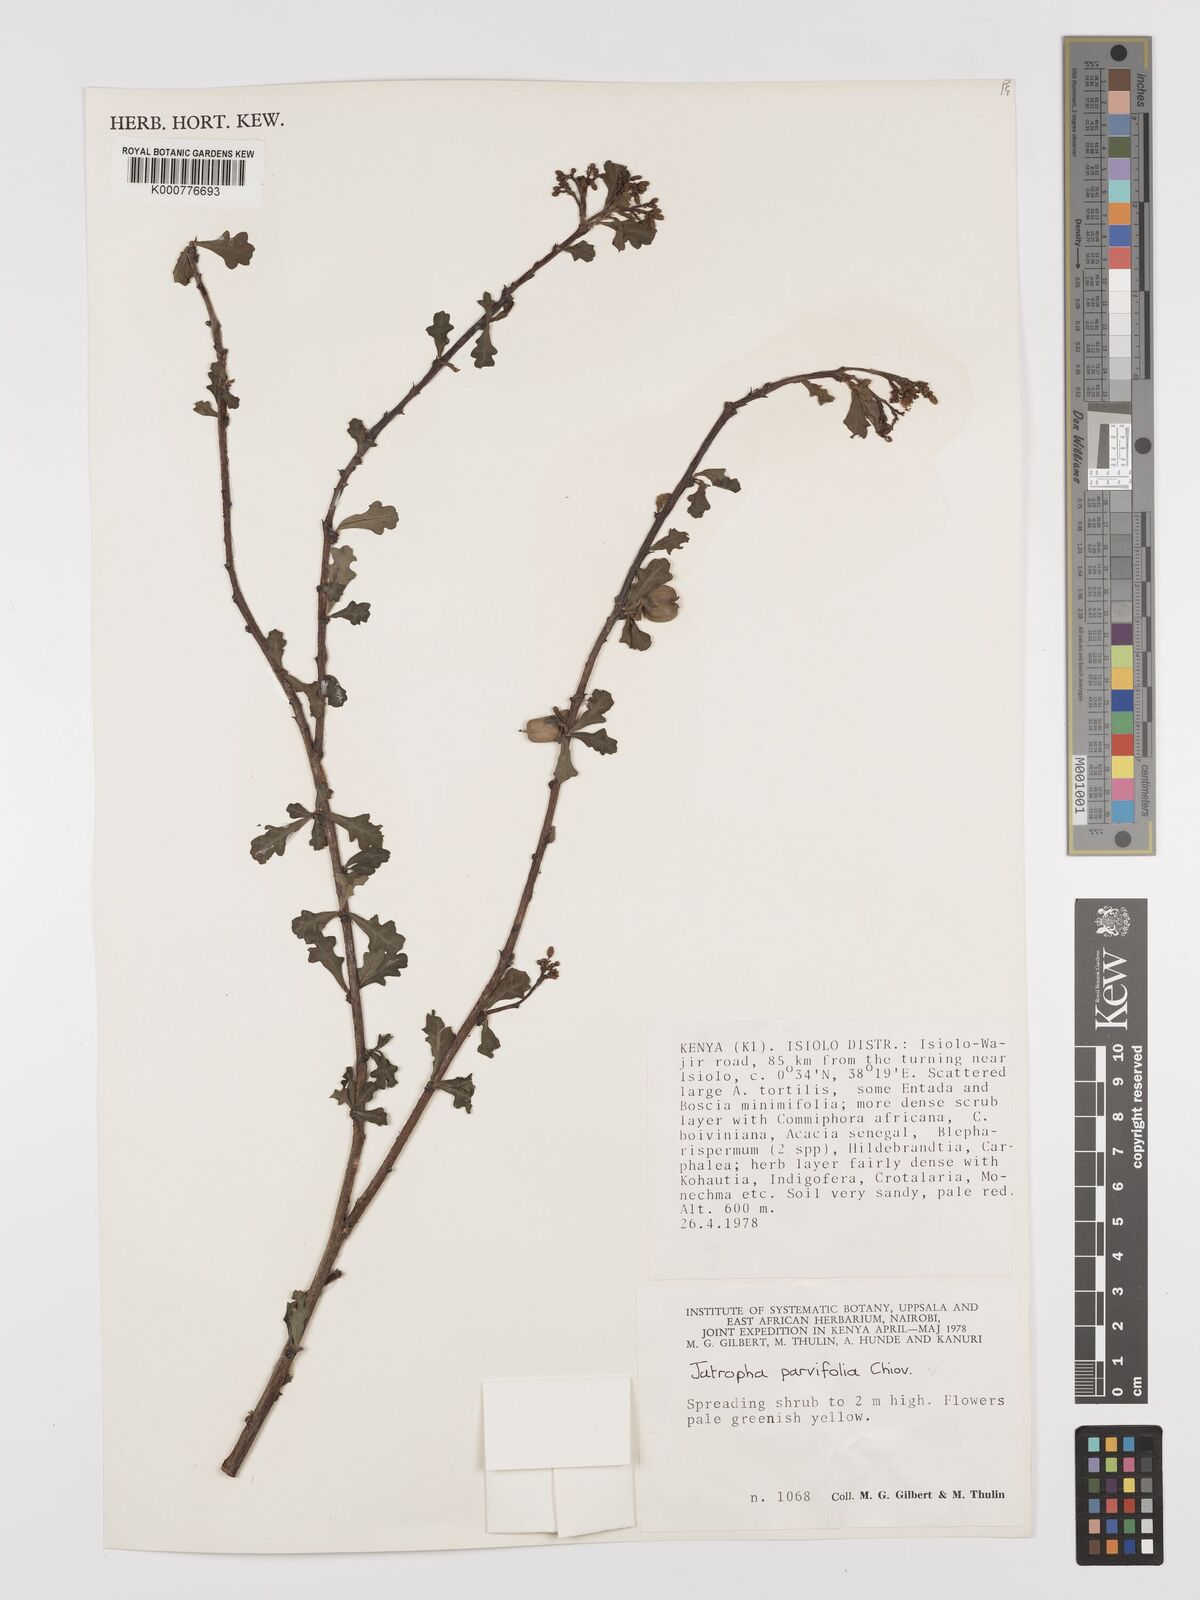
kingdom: Plantae
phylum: Tracheophyta
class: Magnoliopsida
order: Malpighiales
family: Euphorbiaceae
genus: Jatropha
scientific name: Jatropha rivae
